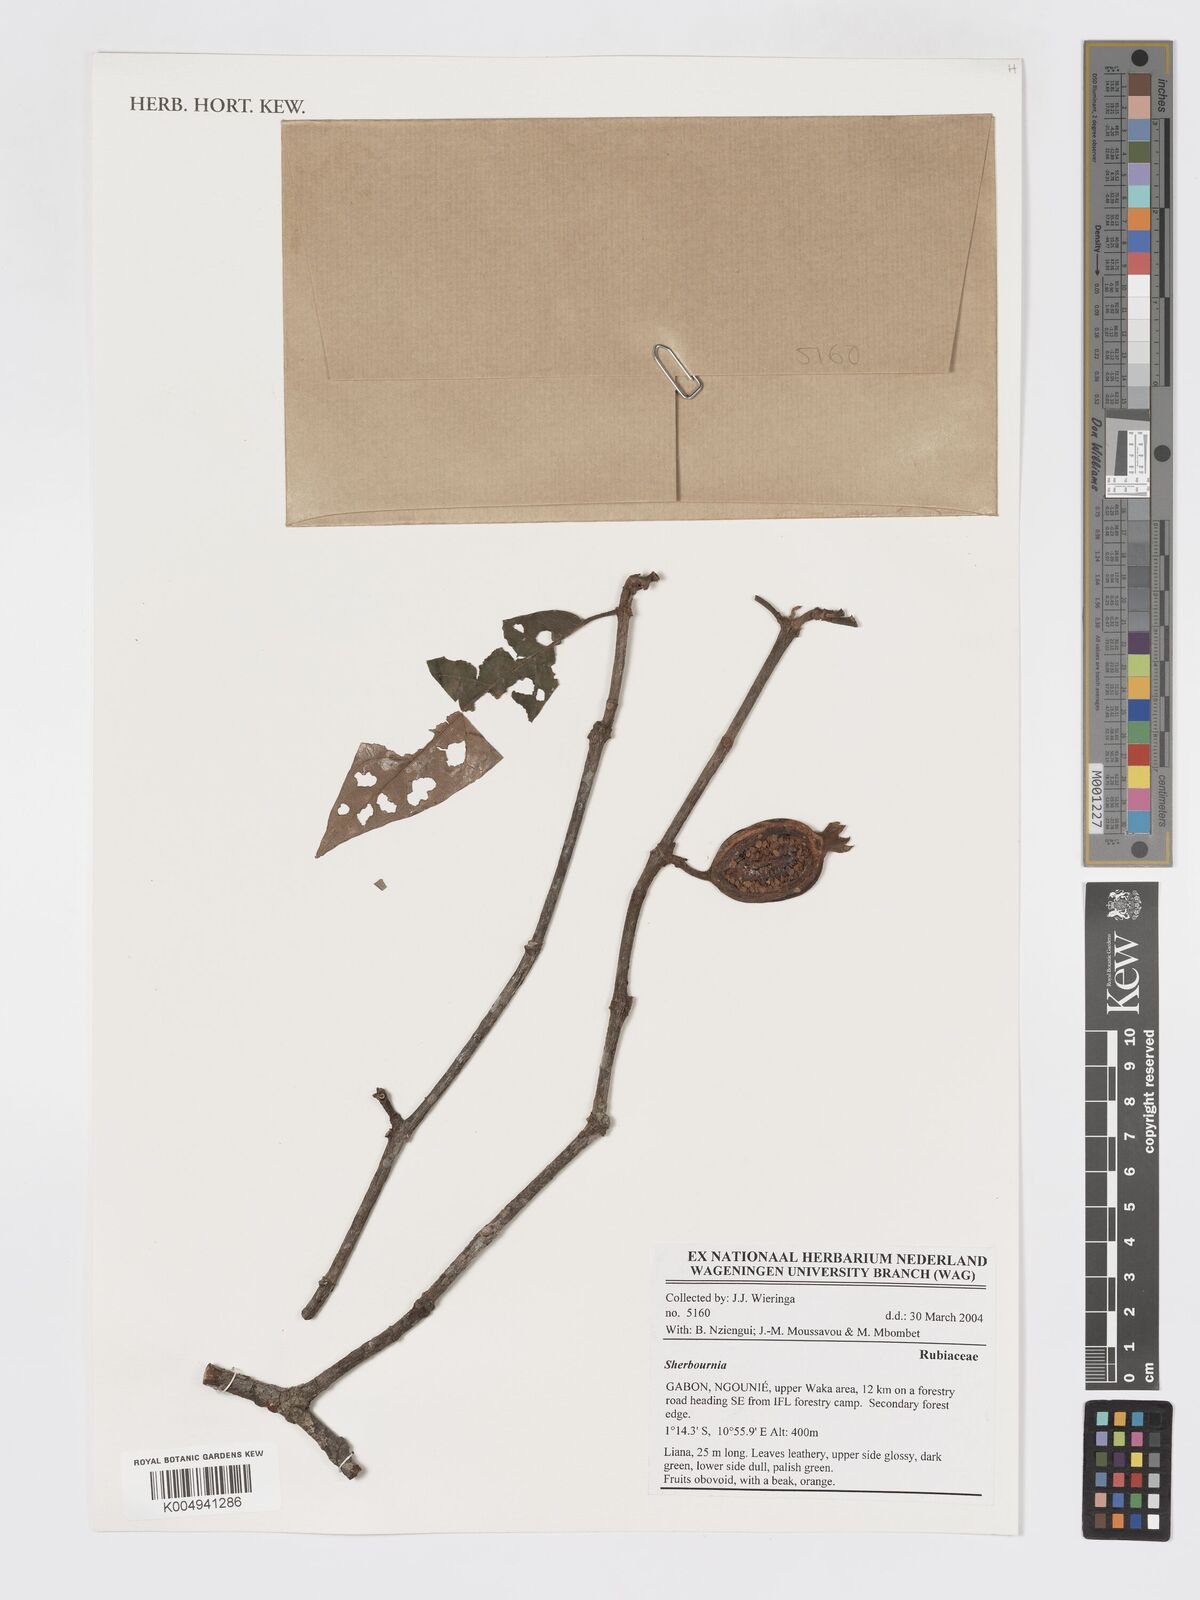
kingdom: Plantae
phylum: Tracheophyta
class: Magnoliopsida
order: Gentianales
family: Rubiaceae
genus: Sherbournia
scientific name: Sherbournia
